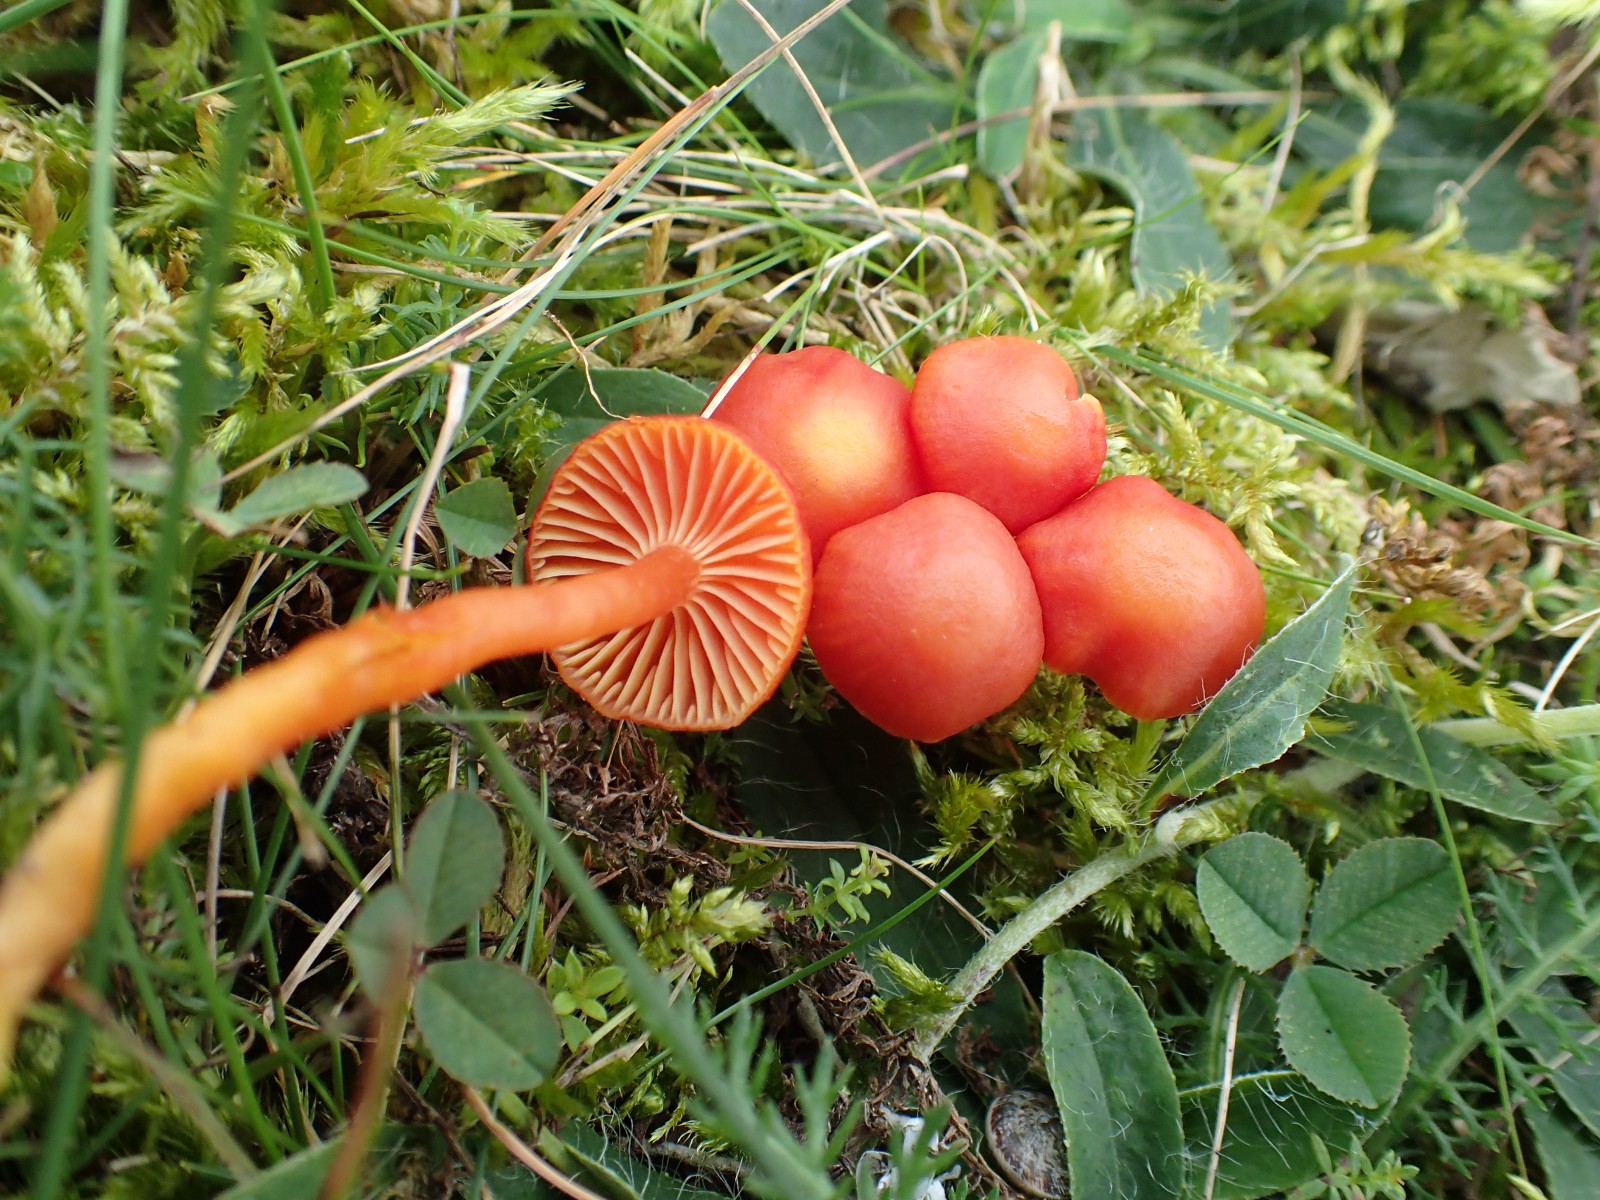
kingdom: Fungi
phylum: Basidiomycota
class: Agaricomycetes
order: Agaricales
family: Hygrophoraceae
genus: Hygrocybe
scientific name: Hygrocybe
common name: vokshat
